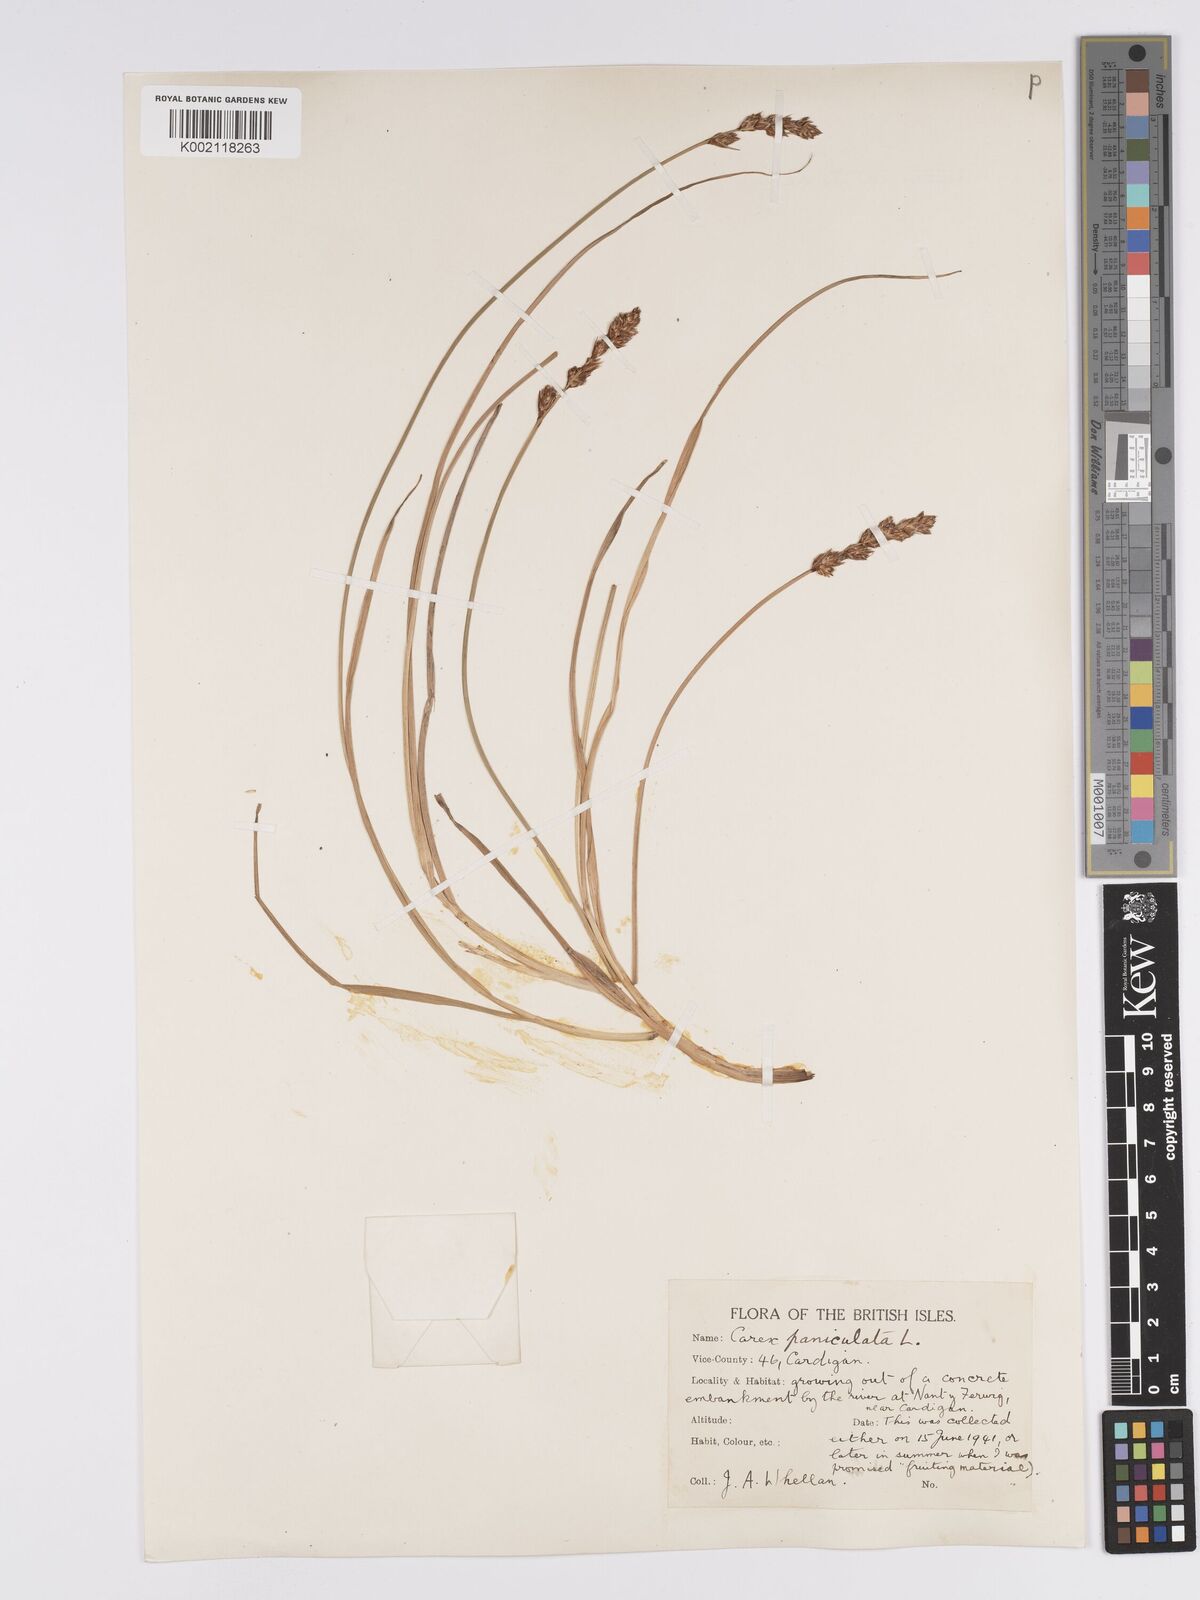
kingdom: Plantae
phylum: Tracheophyta
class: Liliopsida
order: Poales
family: Cyperaceae
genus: Carex
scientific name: Carex paniculata
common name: Greater tussock-sedge
